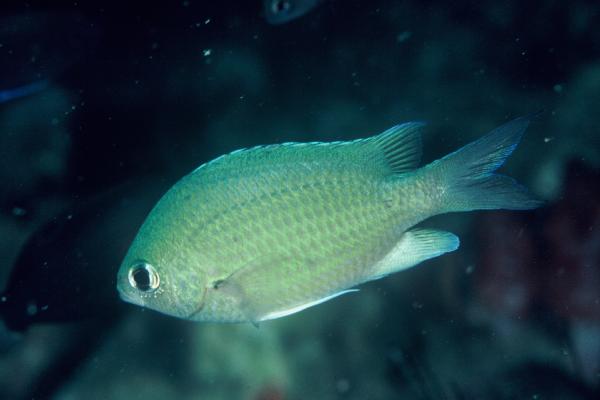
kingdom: Animalia
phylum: Chordata
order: Perciformes
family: Pomacentridae
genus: Chromis
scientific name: Chromis cinerascens
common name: Green chromis
